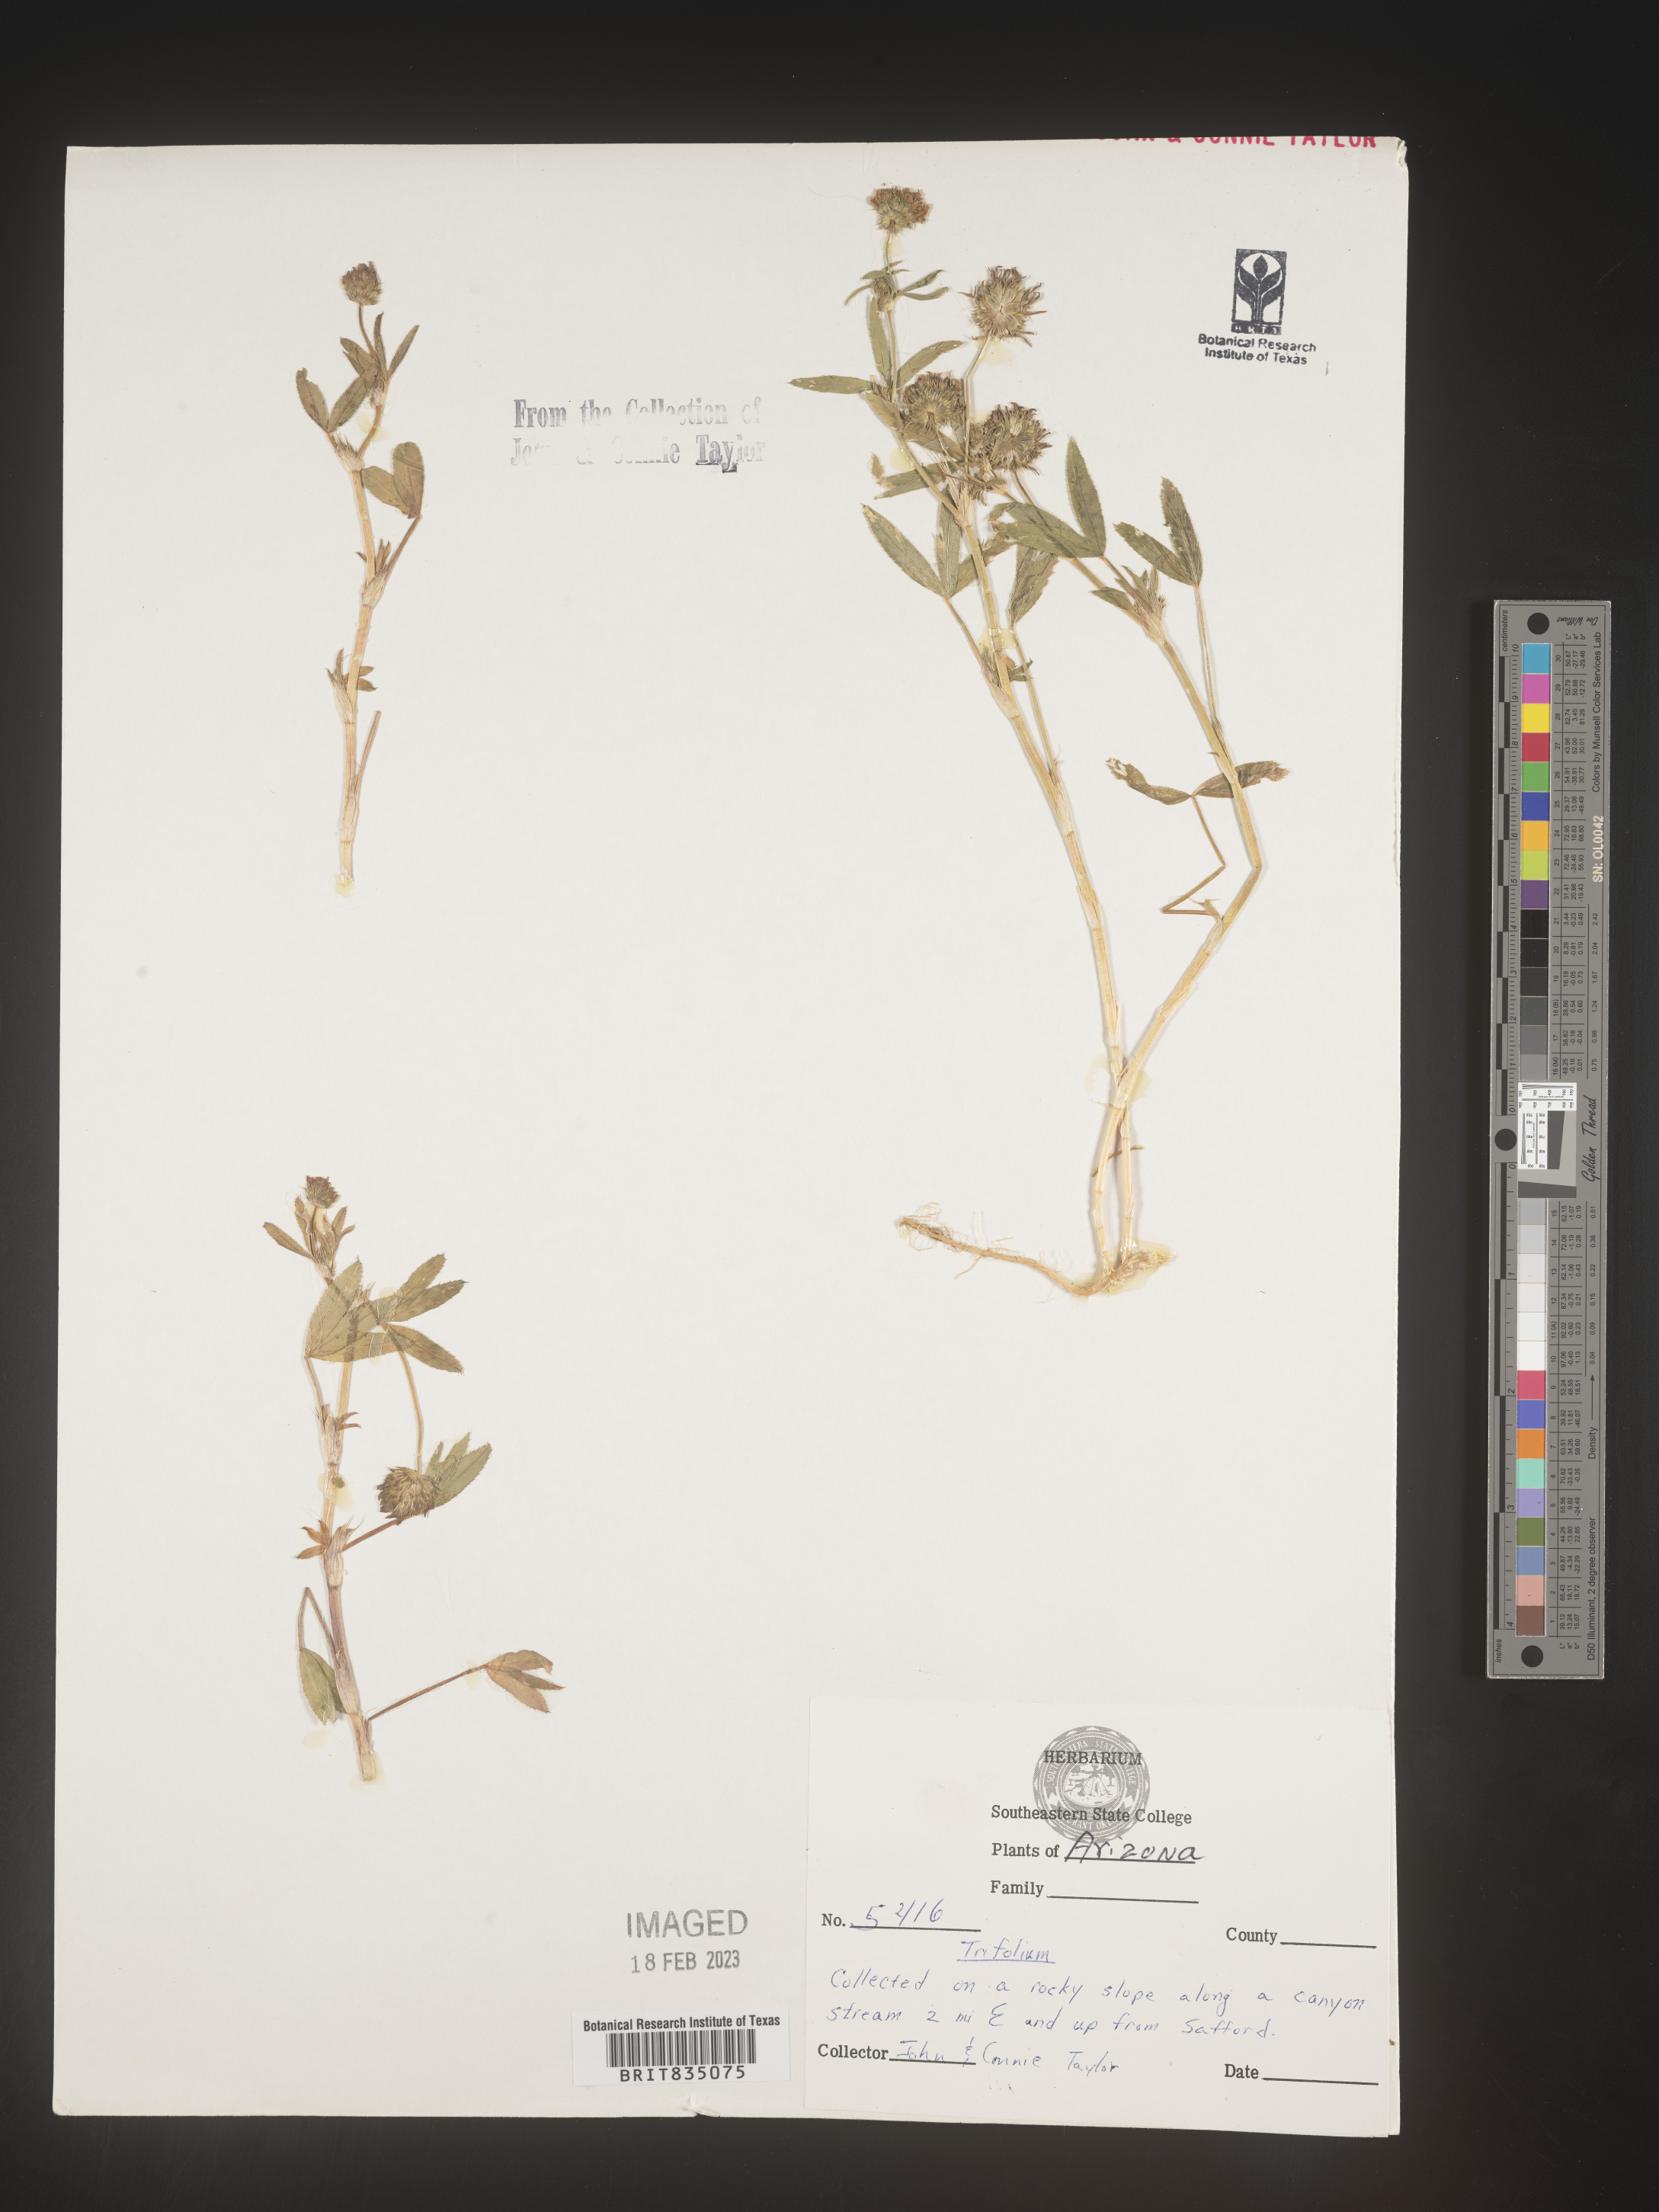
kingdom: Plantae
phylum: Tracheophyta
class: Magnoliopsida
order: Fabales
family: Fabaceae
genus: Trifolium
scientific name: Trifolium
